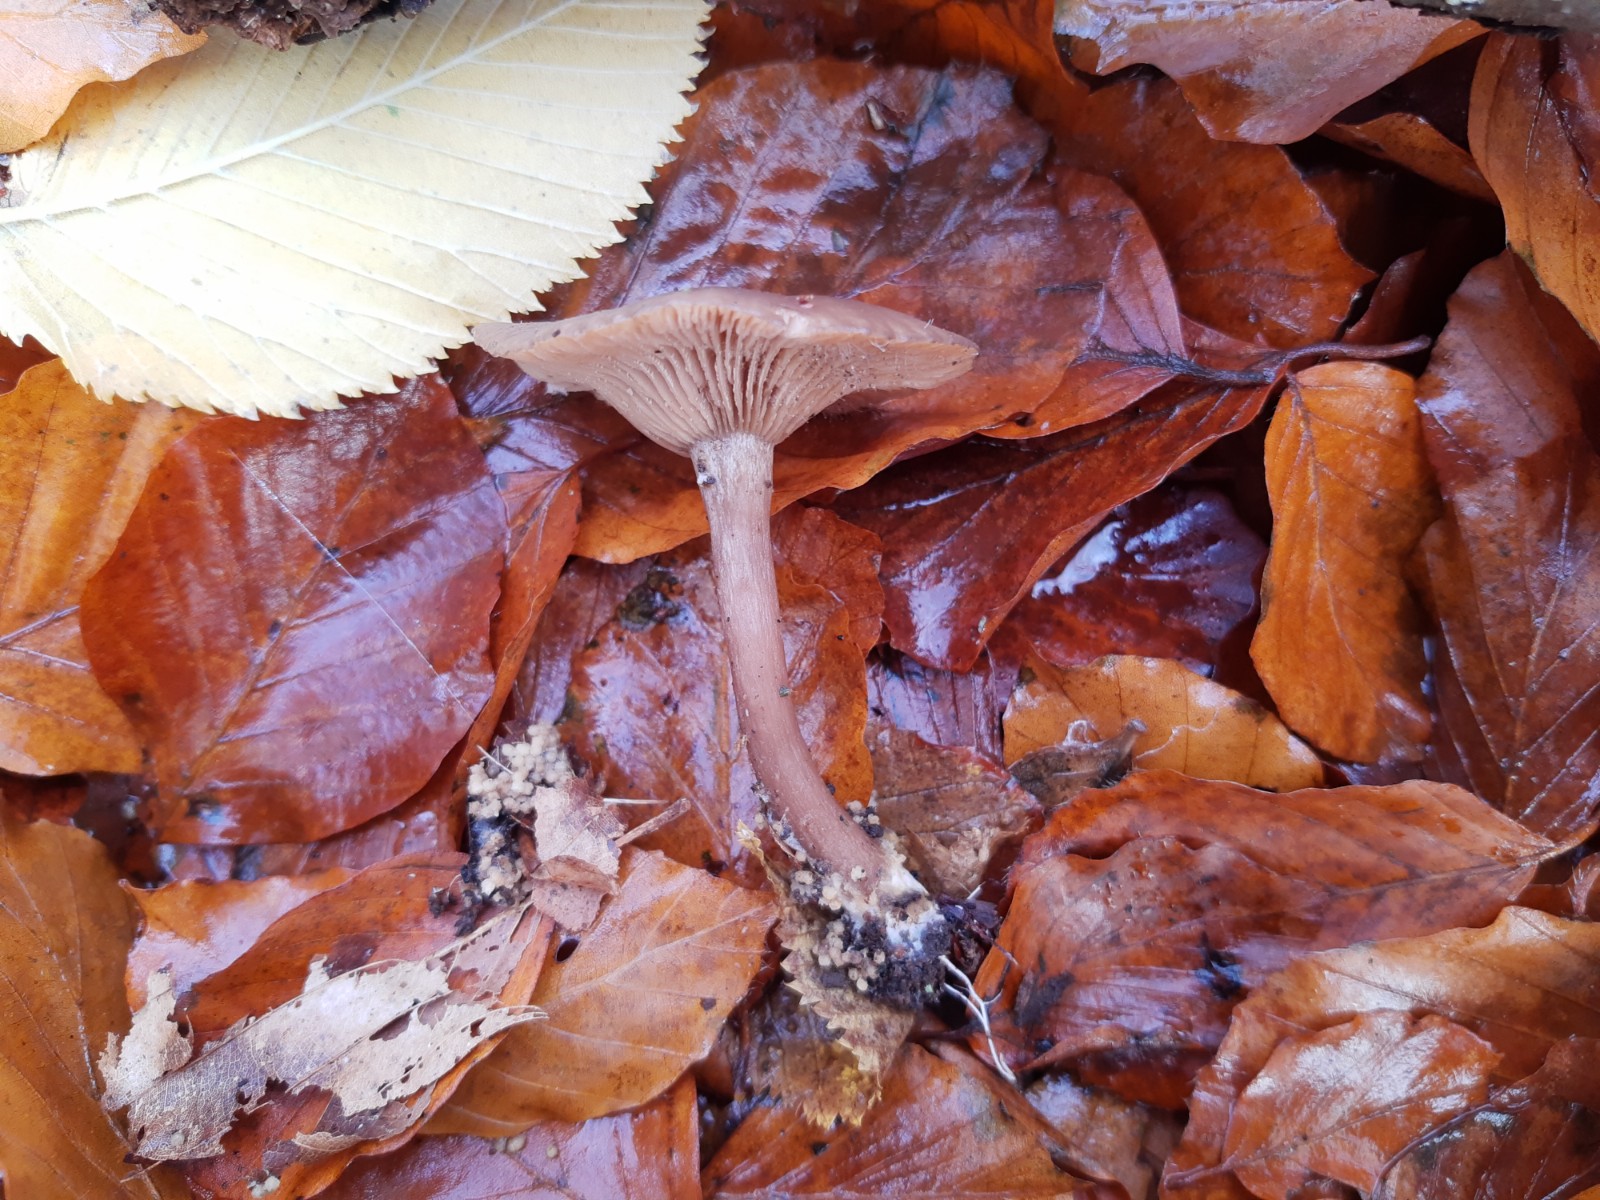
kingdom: Fungi
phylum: Basidiomycota
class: Agaricomycetes
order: Agaricales
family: Pseudoclitocybaceae
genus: Pseudoclitocybe
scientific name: Pseudoclitocybe cyathiformis
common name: almindelig bægertragthat
